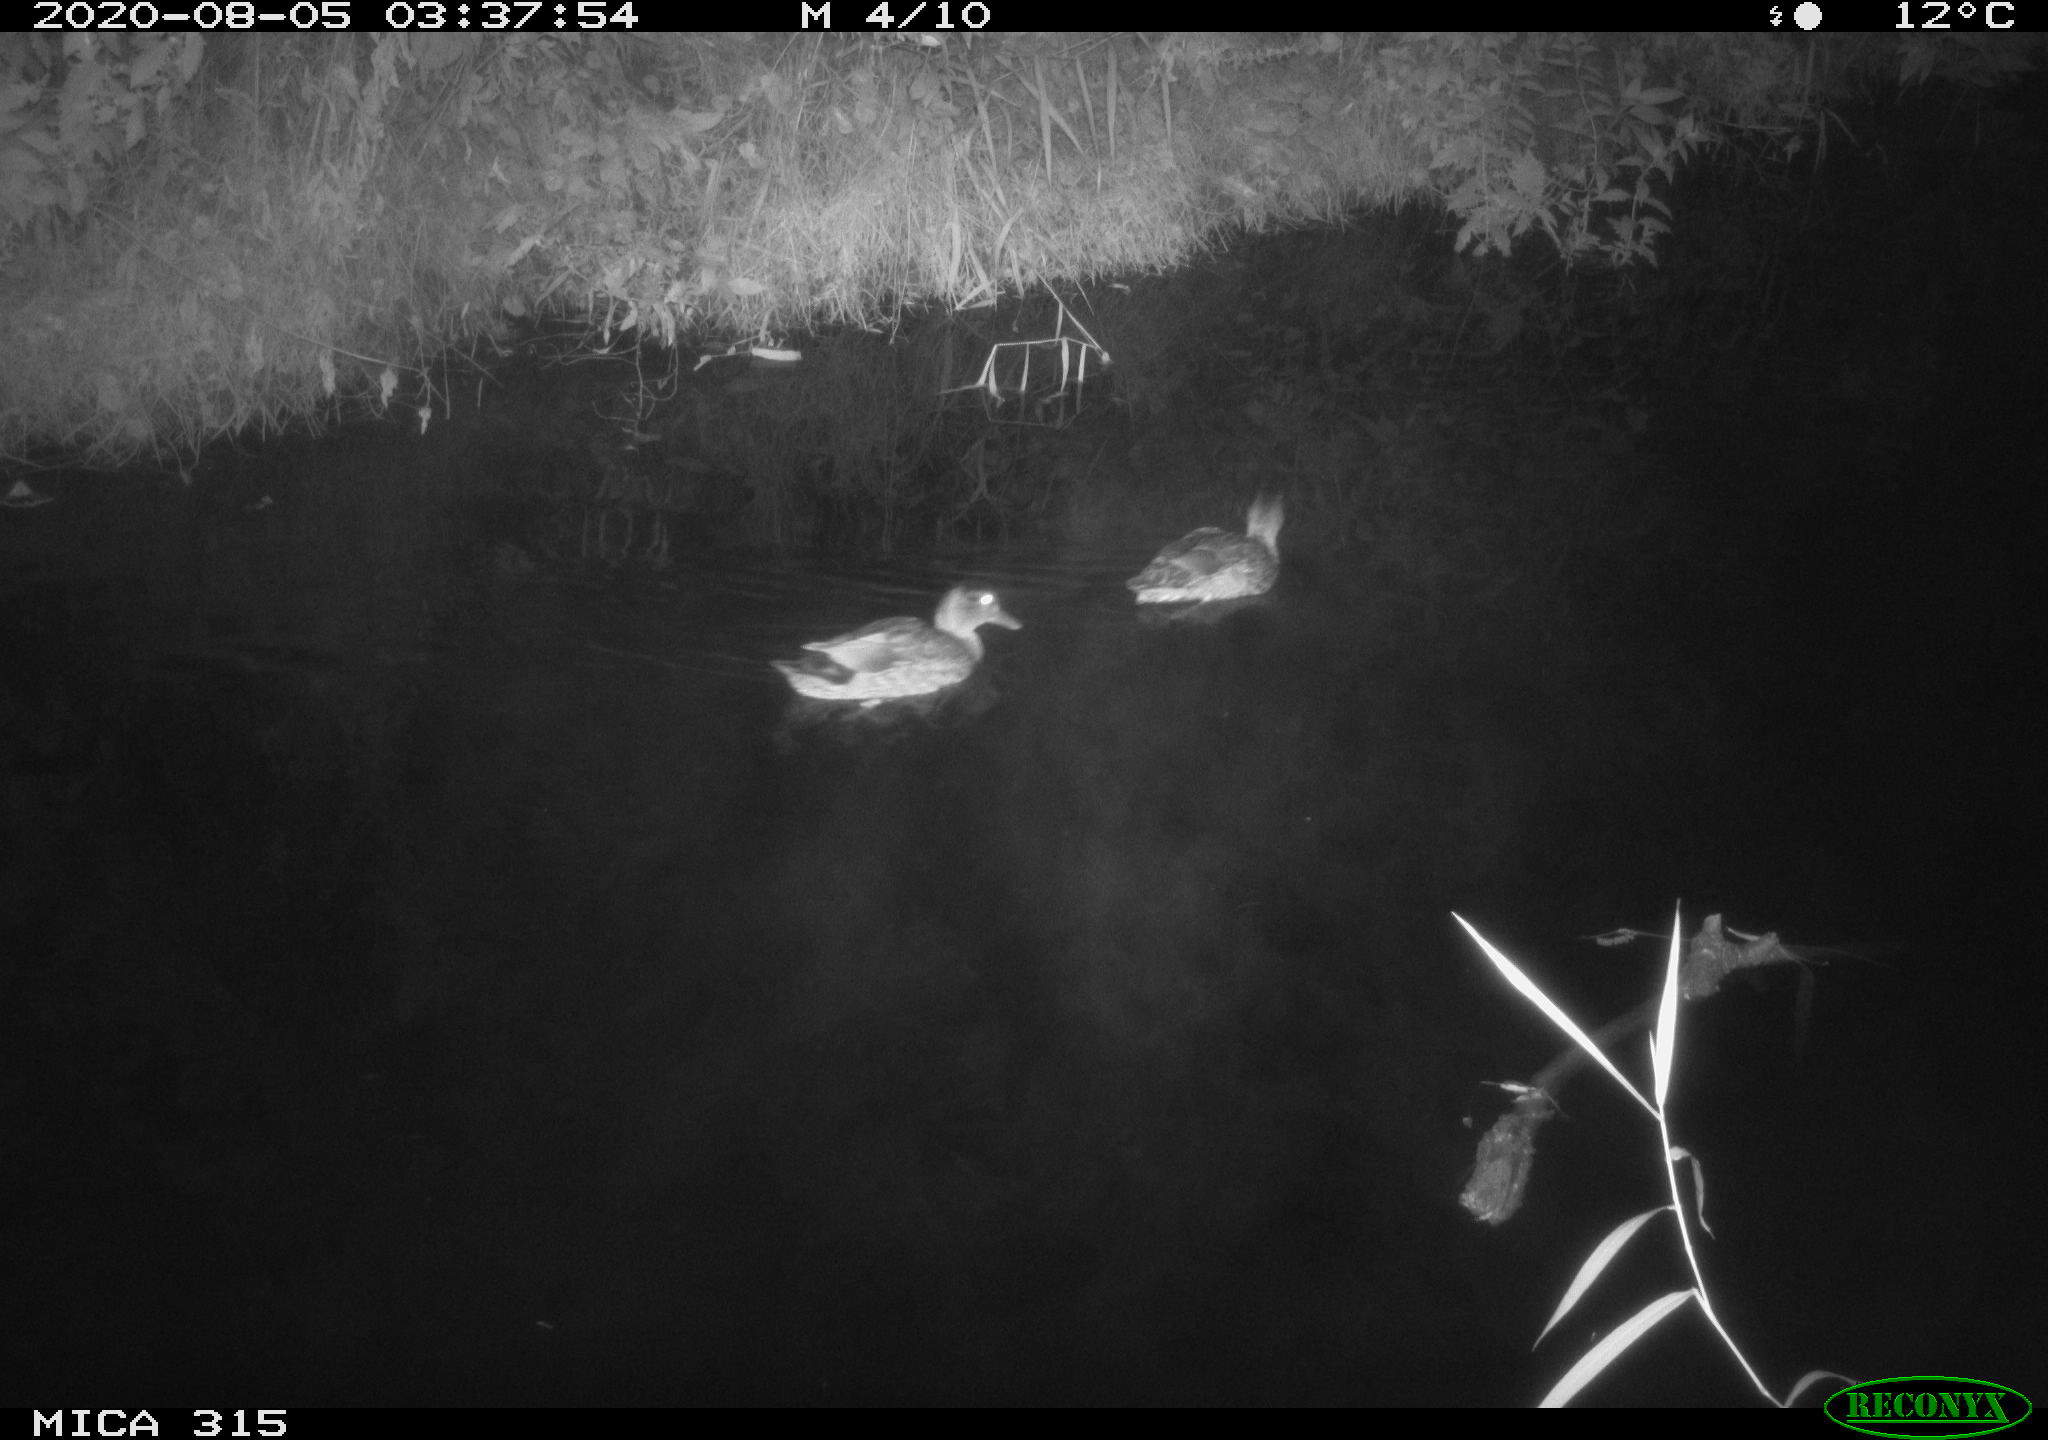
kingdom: Animalia
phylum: Chordata
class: Aves
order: Anseriformes
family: Anatidae
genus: Anas
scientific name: Anas platyrhynchos
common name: Mallard
